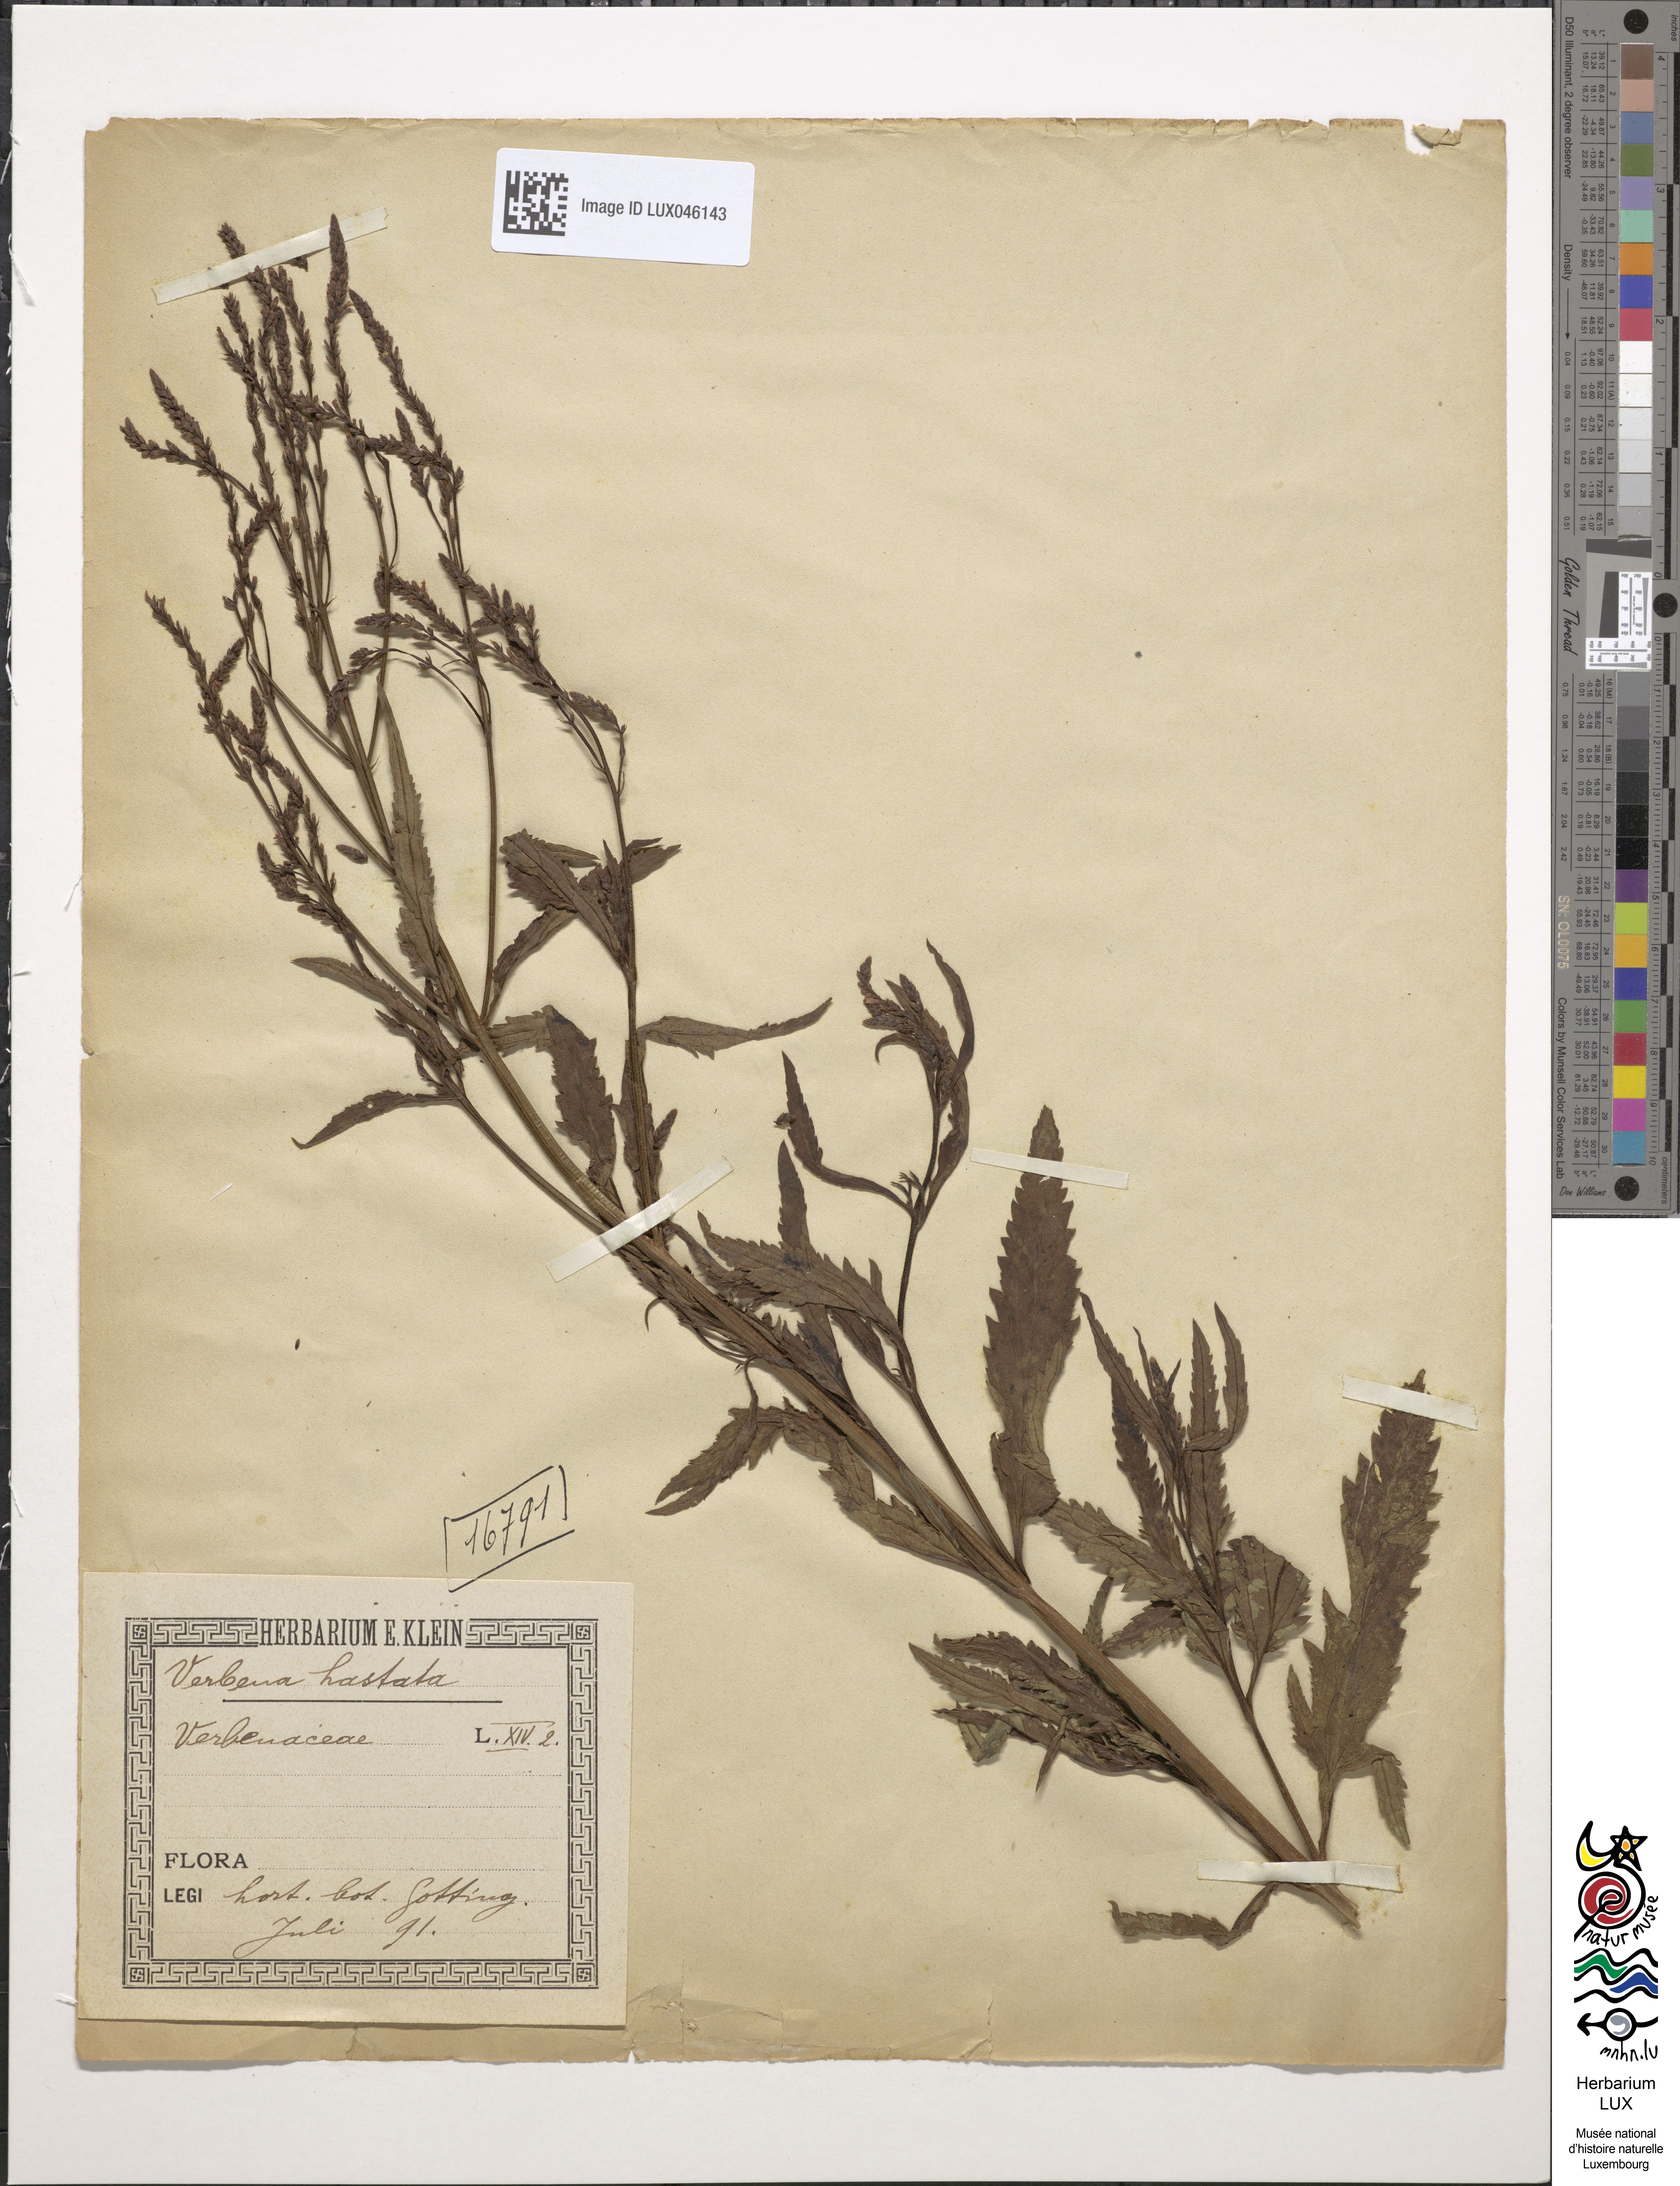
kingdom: Plantae
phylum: Tracheophyta
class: Magnoliopsida
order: Lamiales
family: Verbenaceae
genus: Verbena
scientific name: Verbena hastata
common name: American blue vervain
